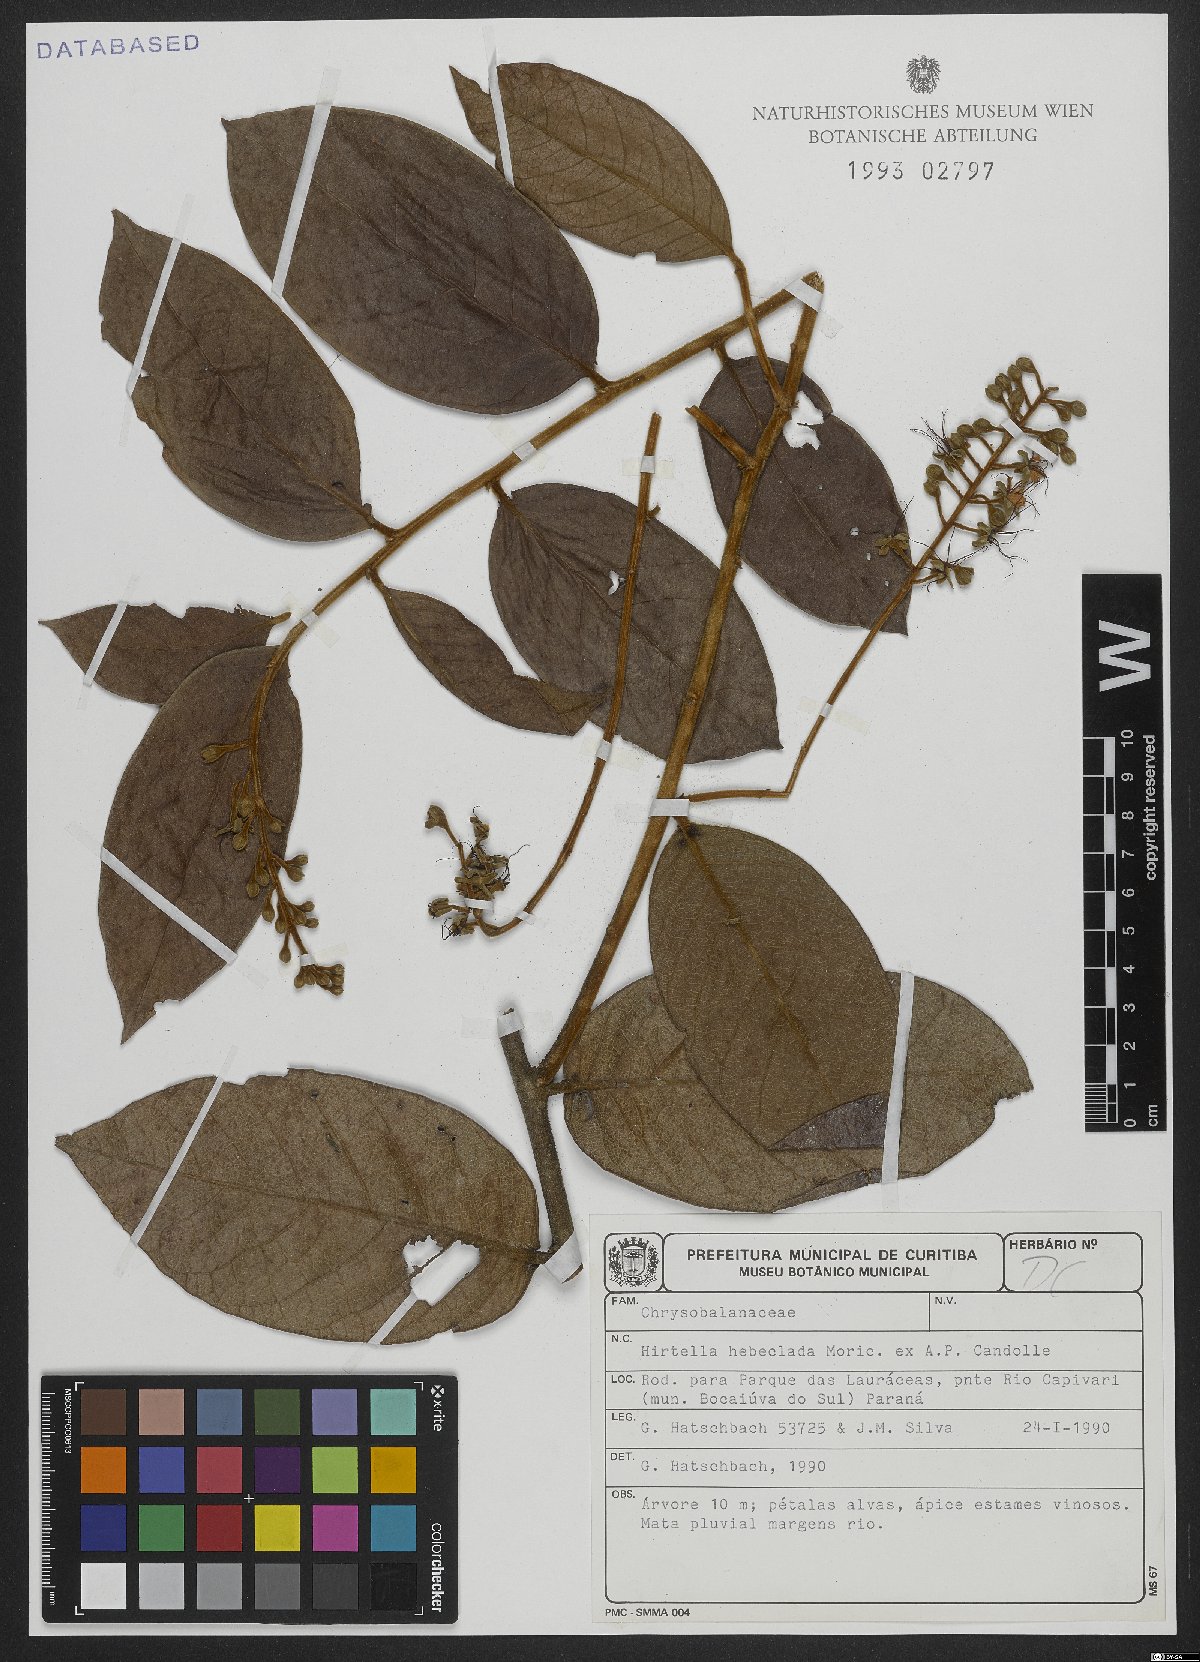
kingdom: Plantae
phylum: Tracheophyta
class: Magnoliopsida
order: Malpighiales
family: Chrysobalanaceae
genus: Hirtella
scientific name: Hirtella hebeclada
